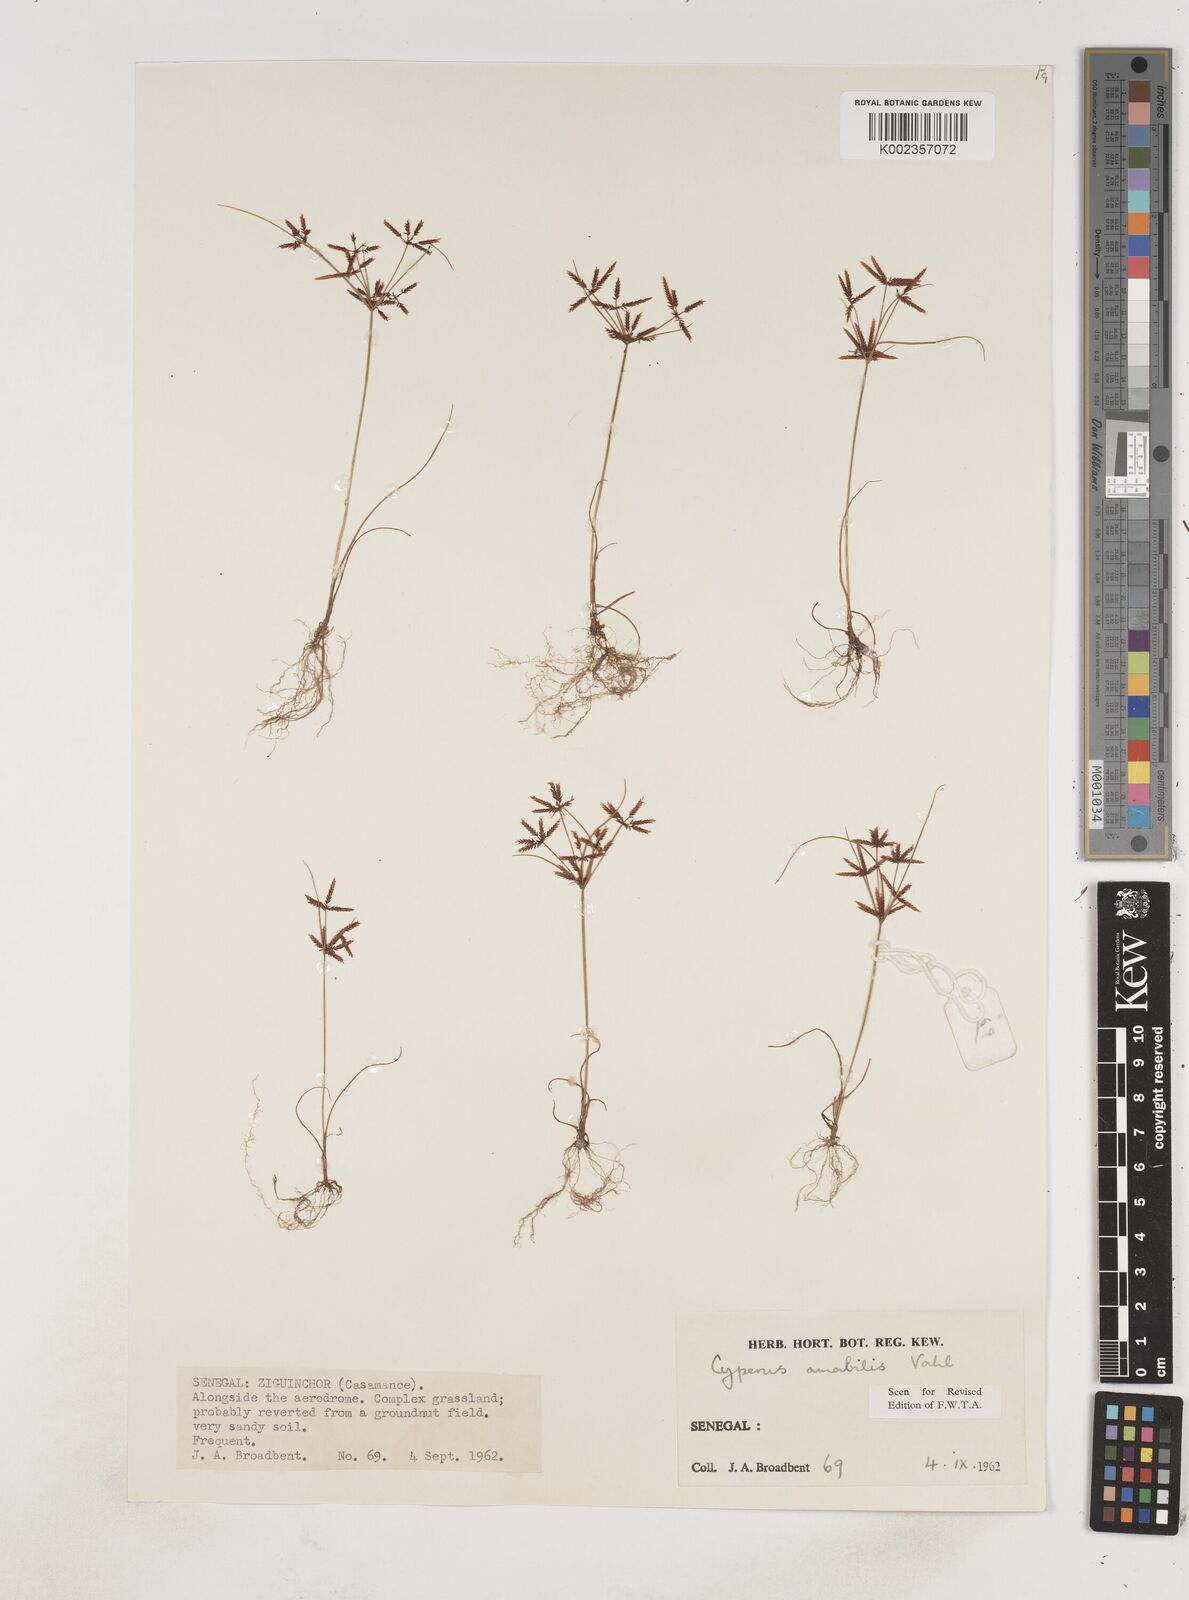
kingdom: Plantae
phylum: Tracheophyta
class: Liliopsida
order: Poales
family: Cyperaceae
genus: Cyperus
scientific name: Cyperus amabilis
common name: Foothill flat sedge
